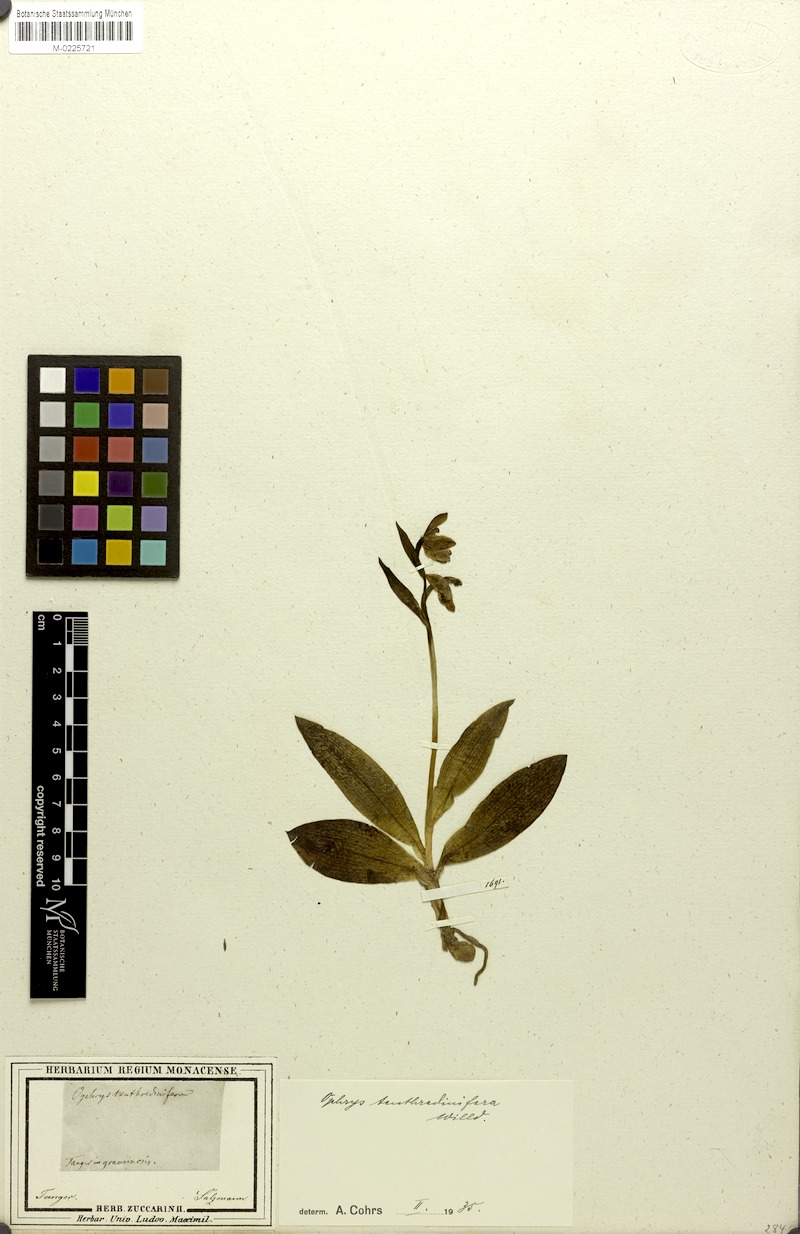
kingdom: Plantae
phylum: Tracheophyta
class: Liliopsida
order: Asparagales
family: Orchidaceae
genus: Ophrys
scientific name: Ophrys tenthredinifera
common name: Sawfly orchid
